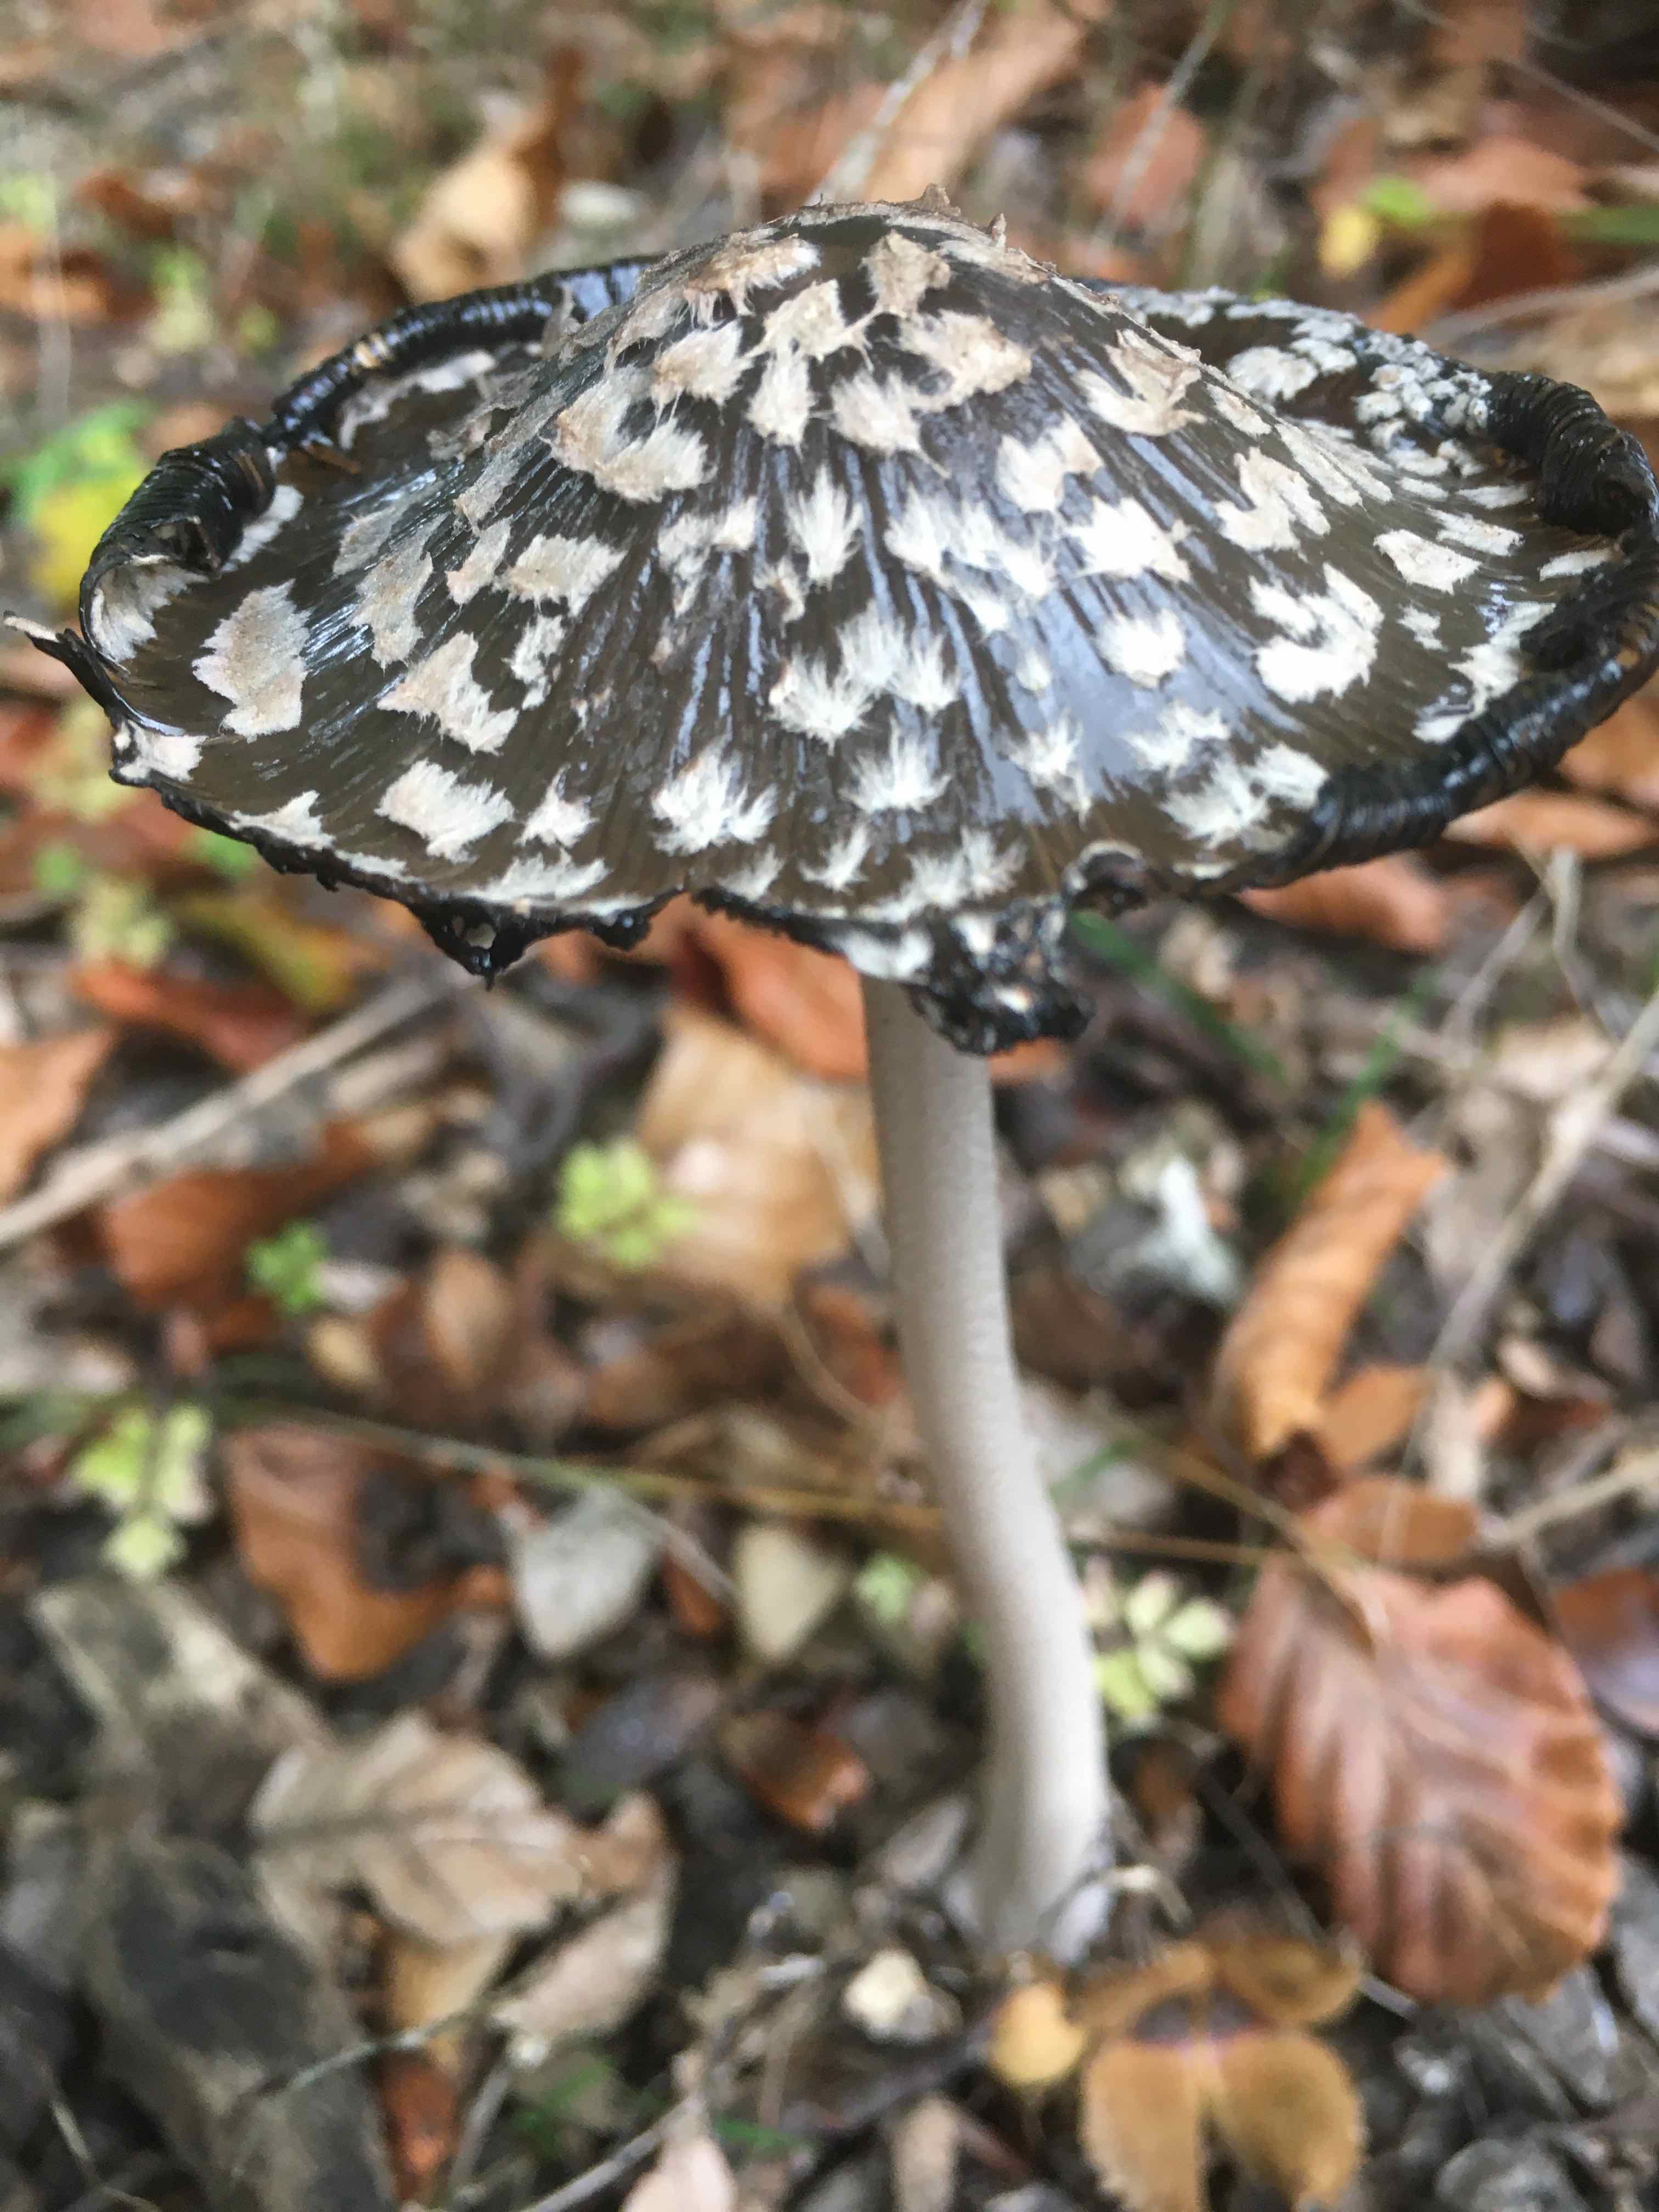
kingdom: Fungi
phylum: Basidiomycota
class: Agaricomycetes
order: Agaricales
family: Psathyrellaceae
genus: Coprinopsis
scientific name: Coprinopsis picacea
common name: skade-blækhat
